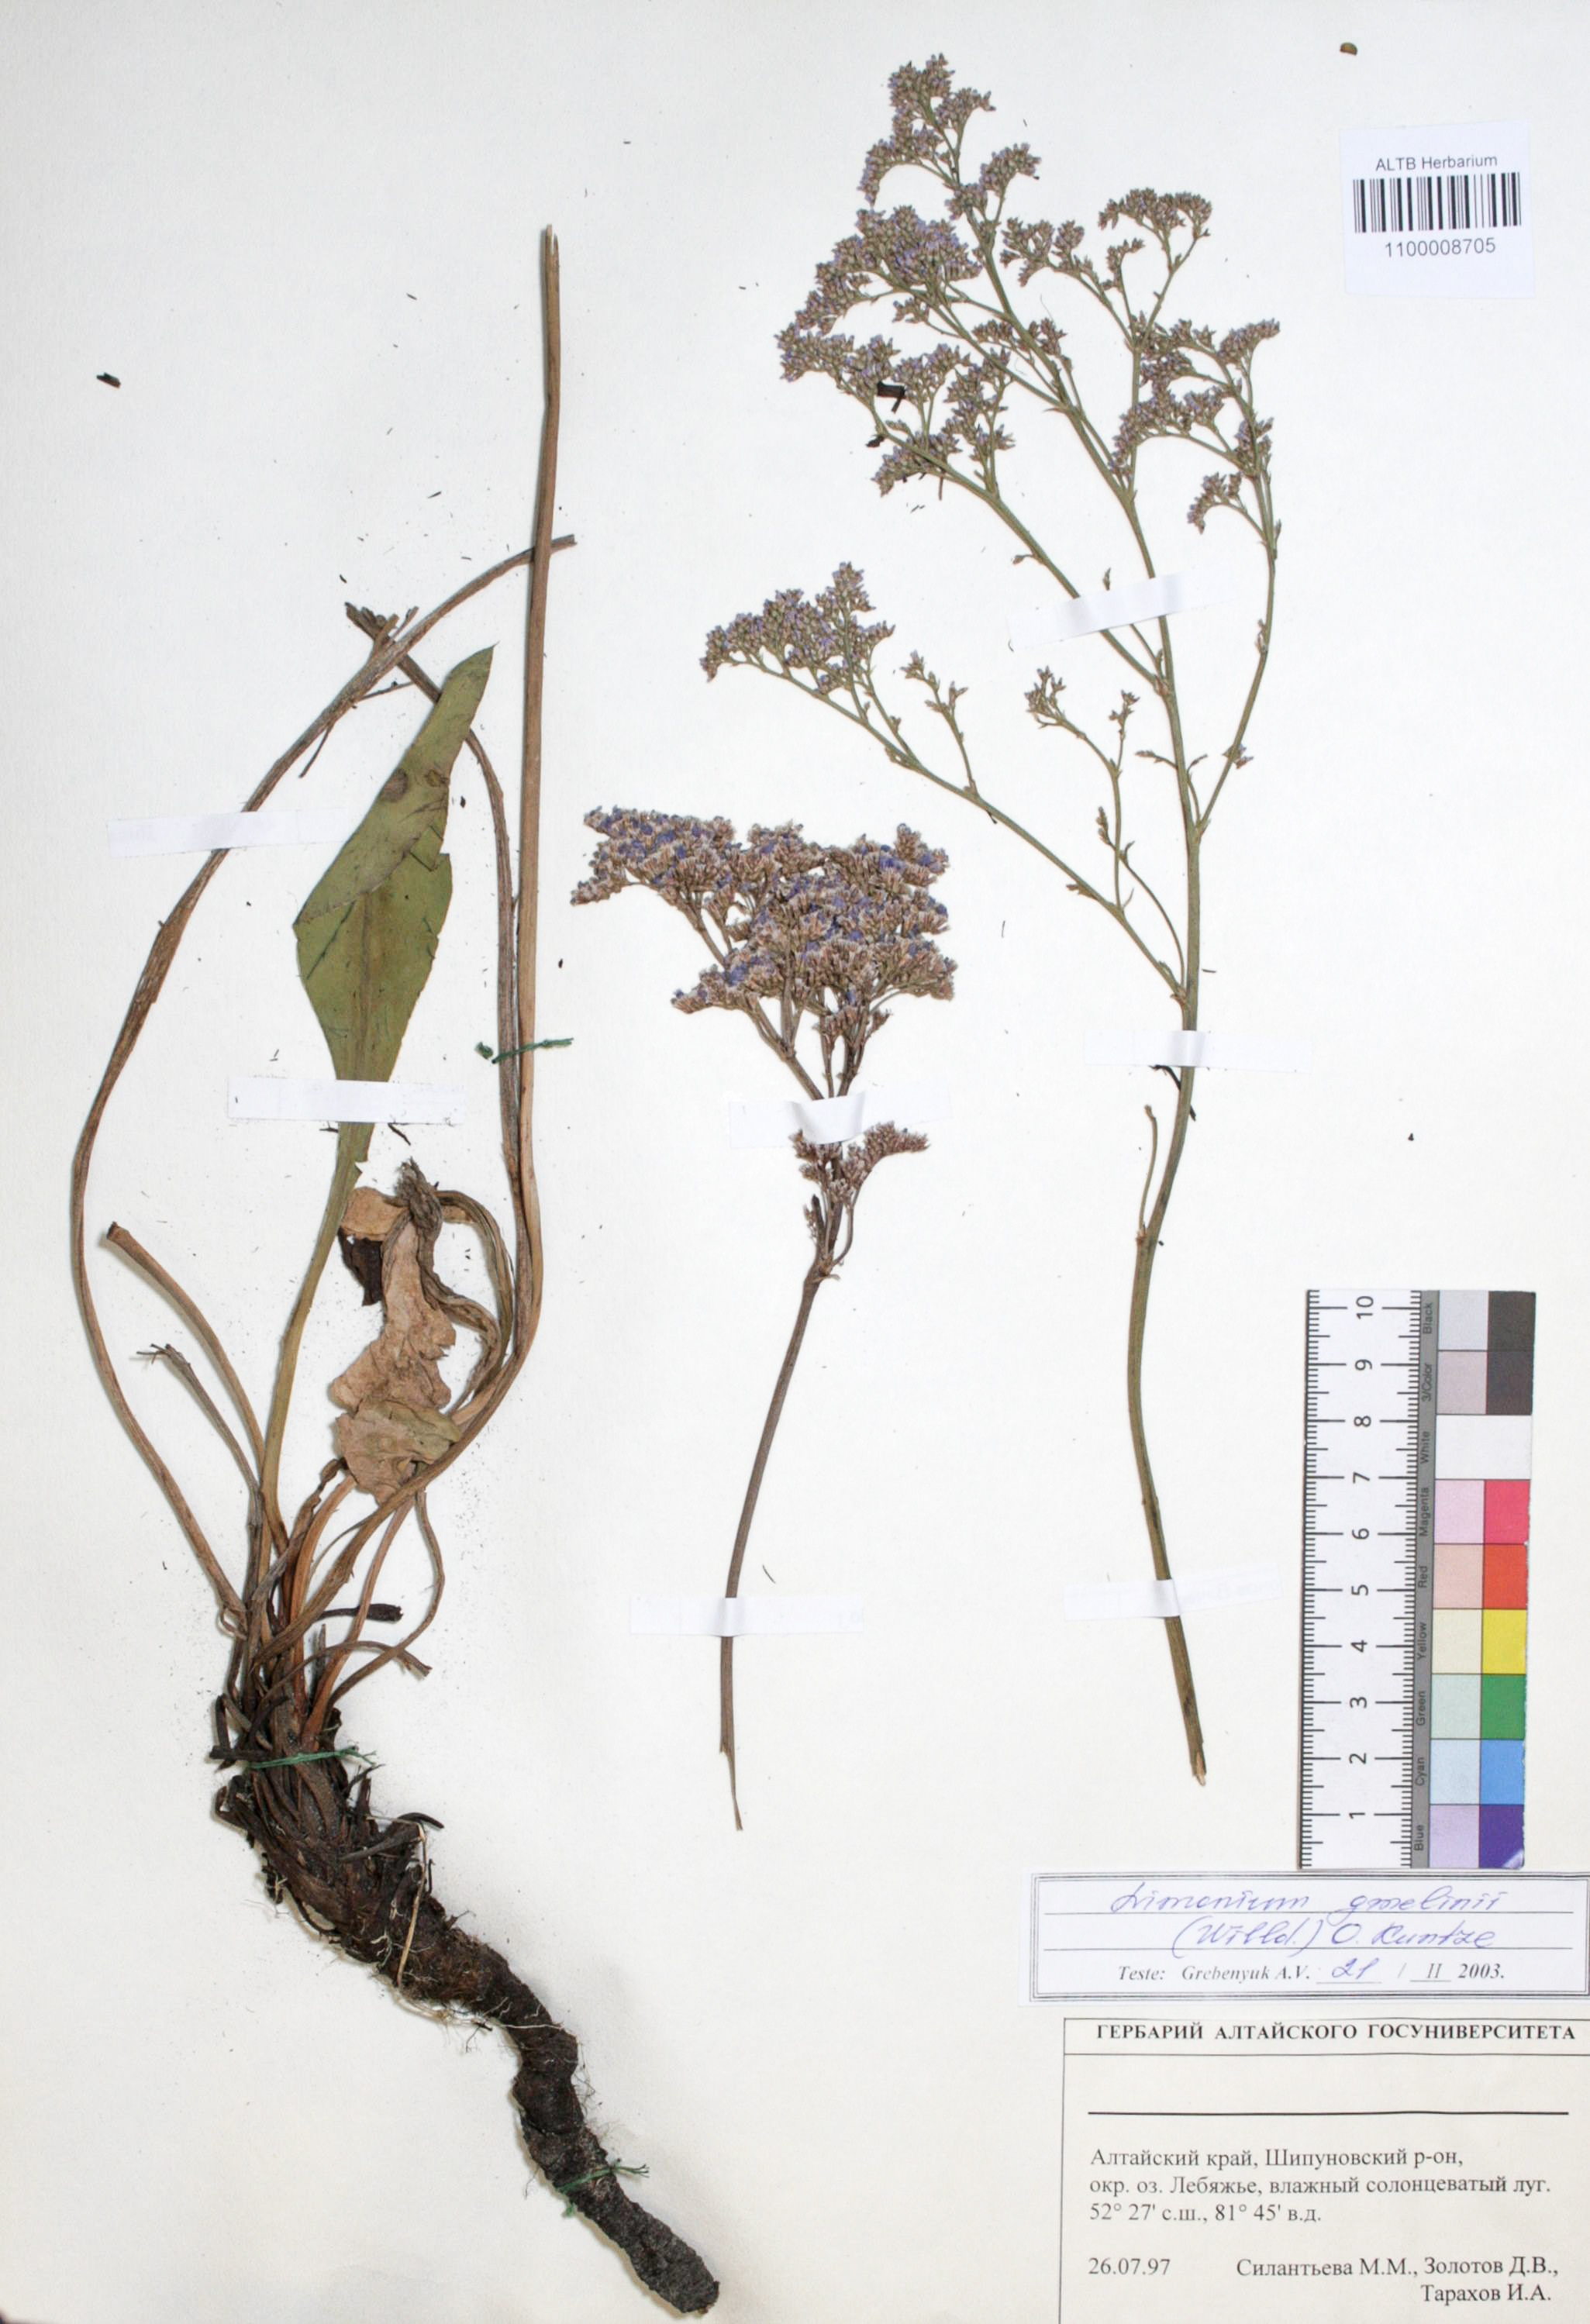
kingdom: Plantae
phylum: Tracheophyta
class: Magnoliopsida
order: Caryophyllales
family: Plumbaginaceae
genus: Limonium
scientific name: Limonium gmelini
